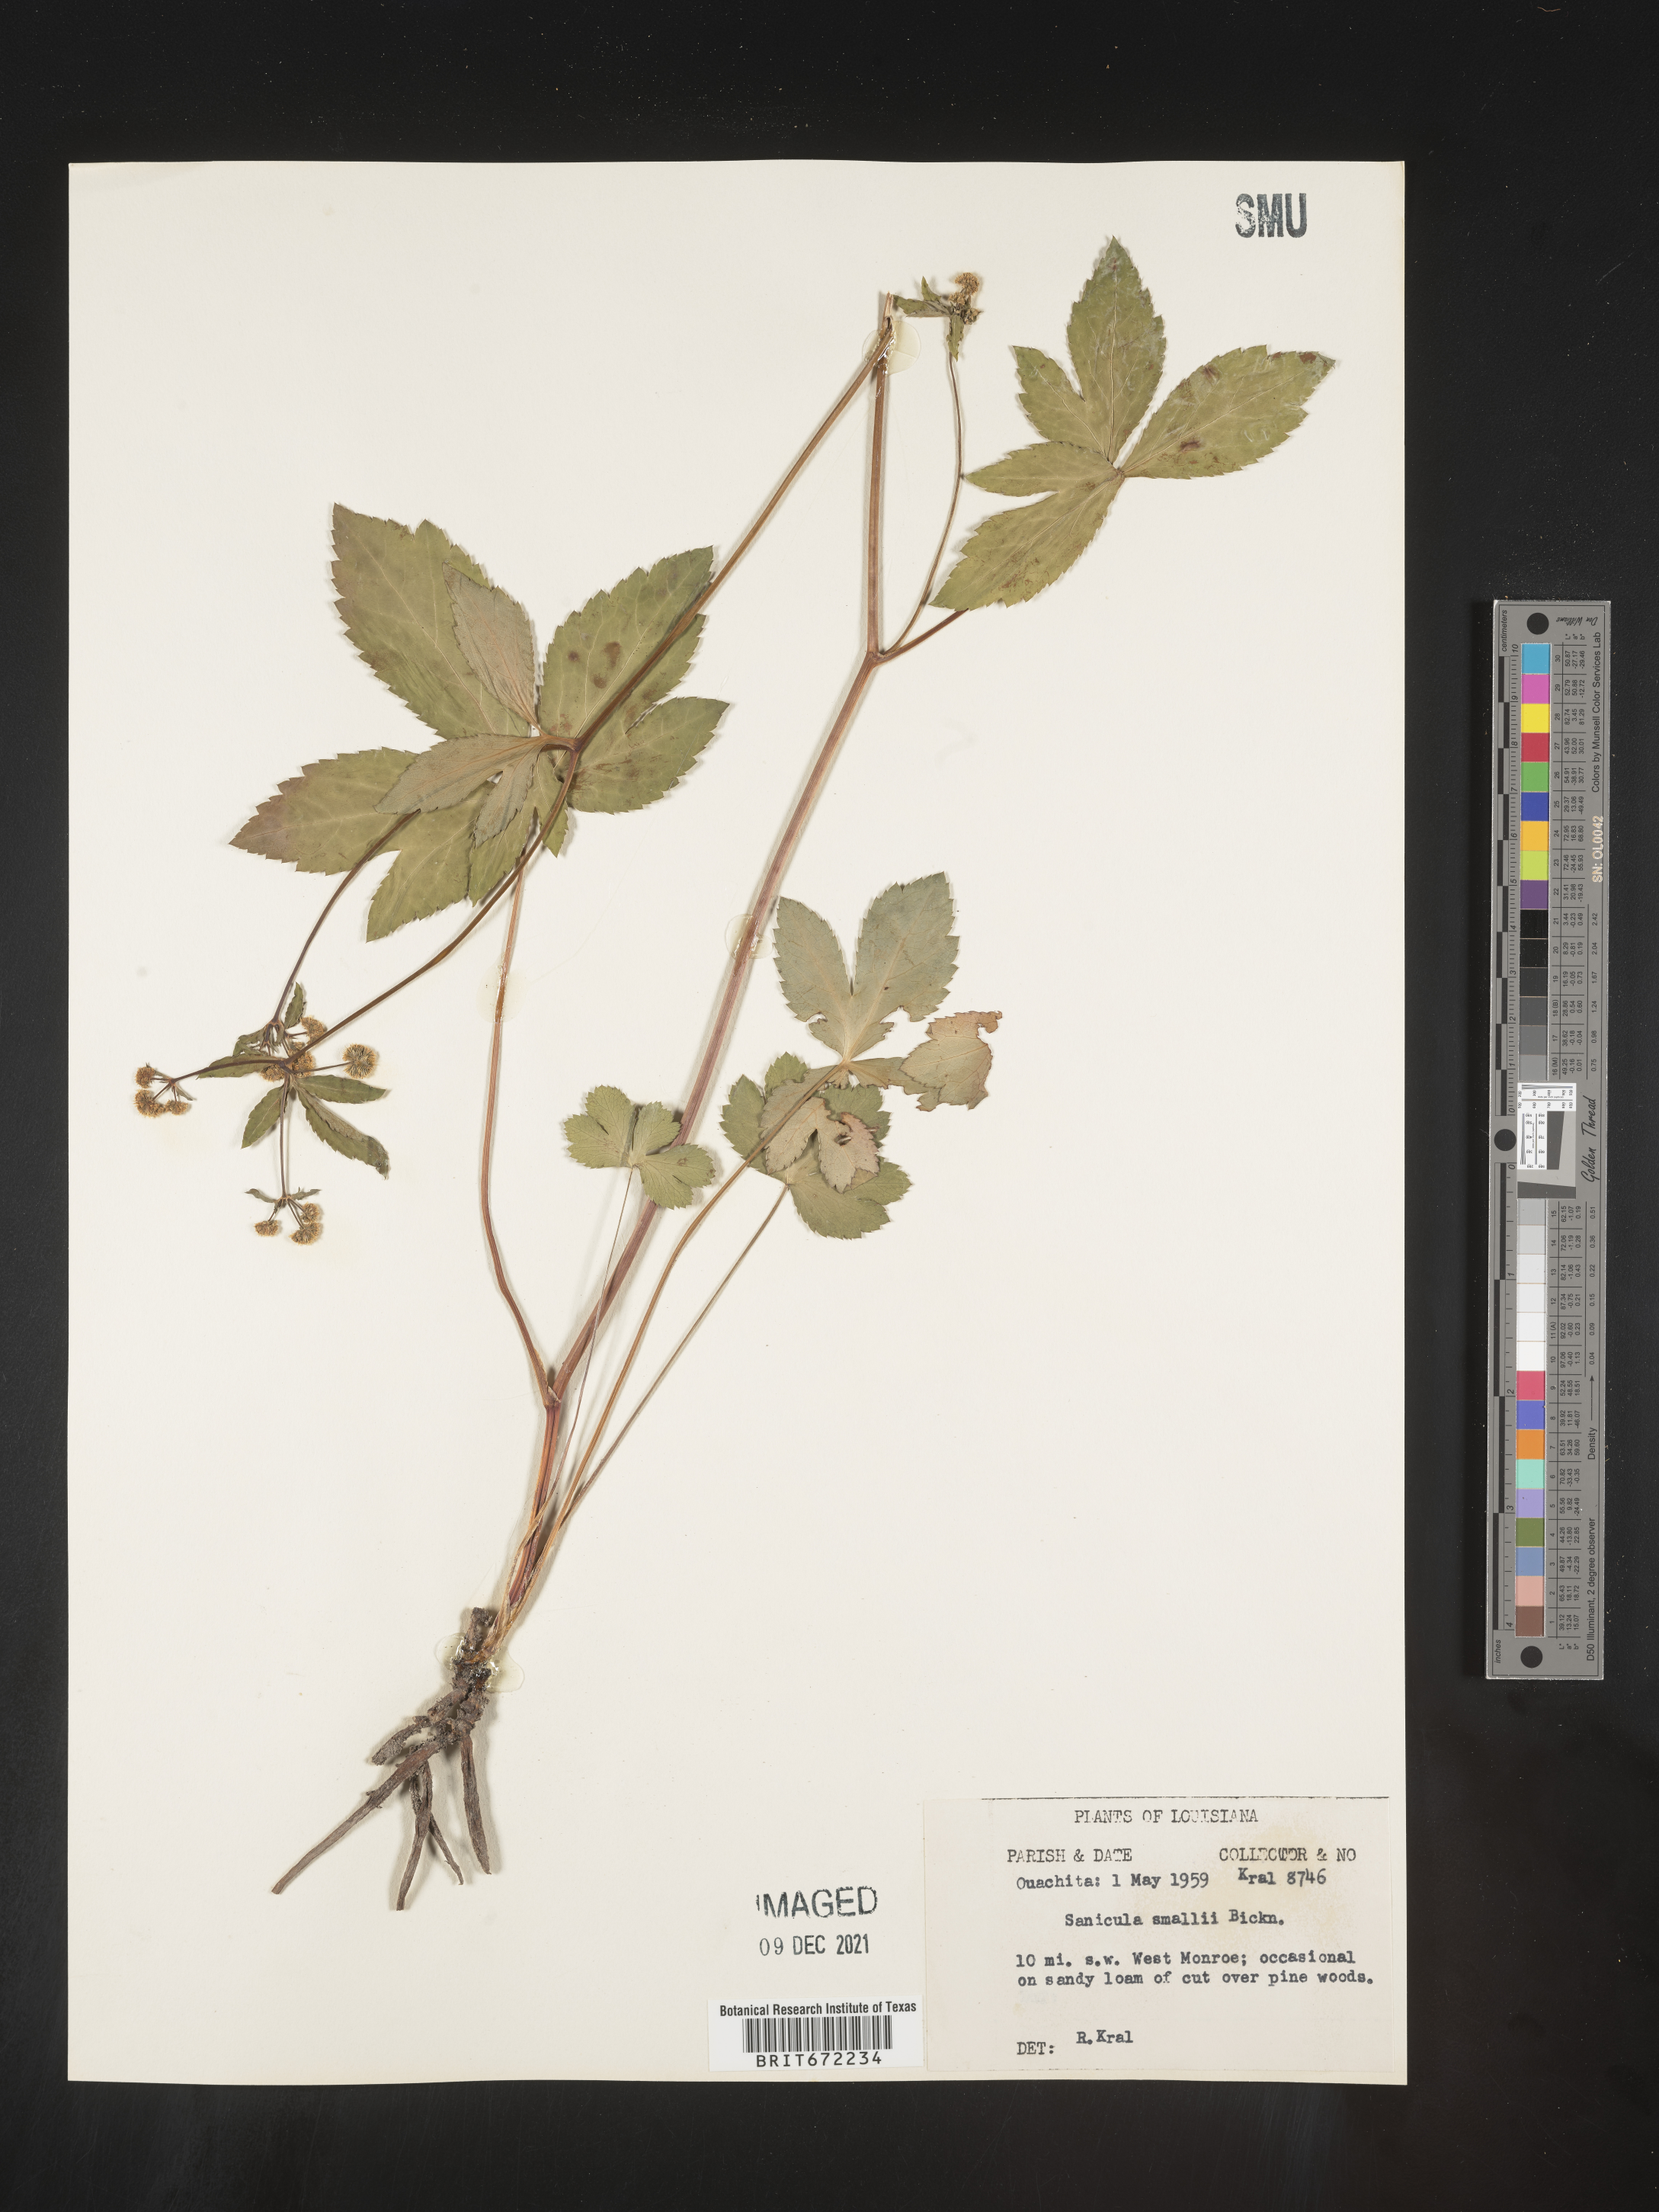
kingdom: Plantae
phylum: Tracheophyta
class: Magnoliopsida
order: Apiales
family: Apiaceae
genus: Sanicula
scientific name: Sanicula
